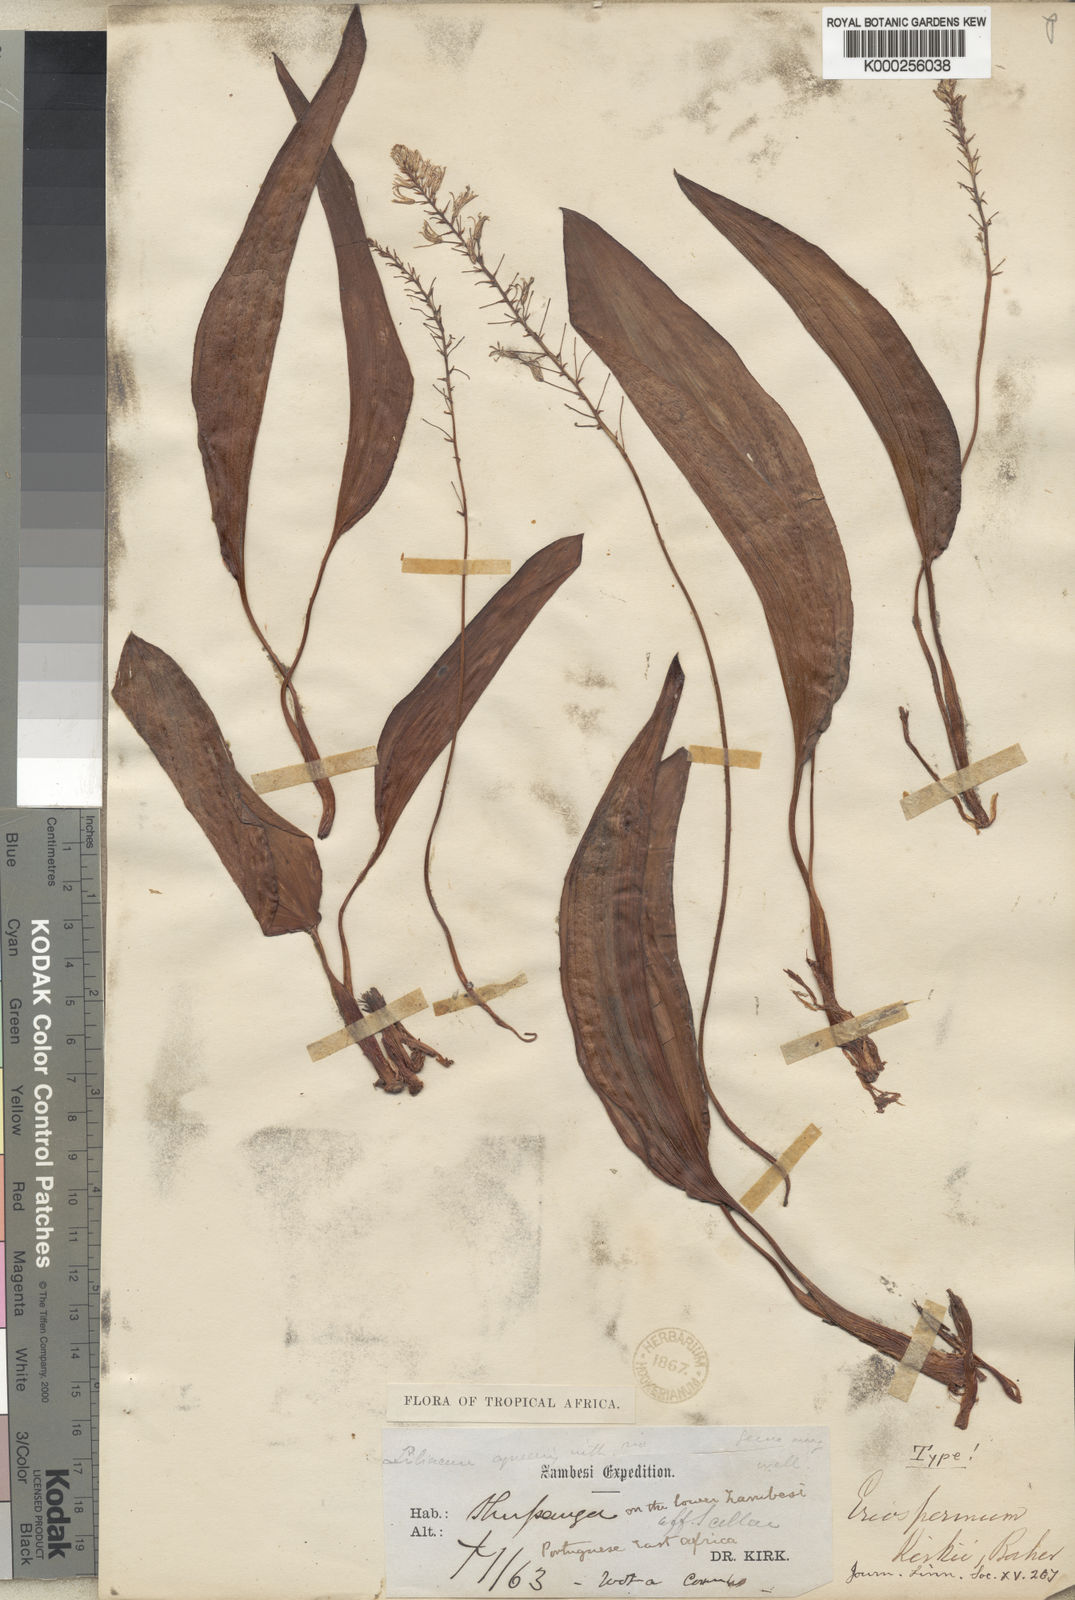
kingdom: Plantae
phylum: Tracheophyta
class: Liliopsida
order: Asparagales
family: Asparagaceae
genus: Eriospermum
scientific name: Eriospermum kirkii
